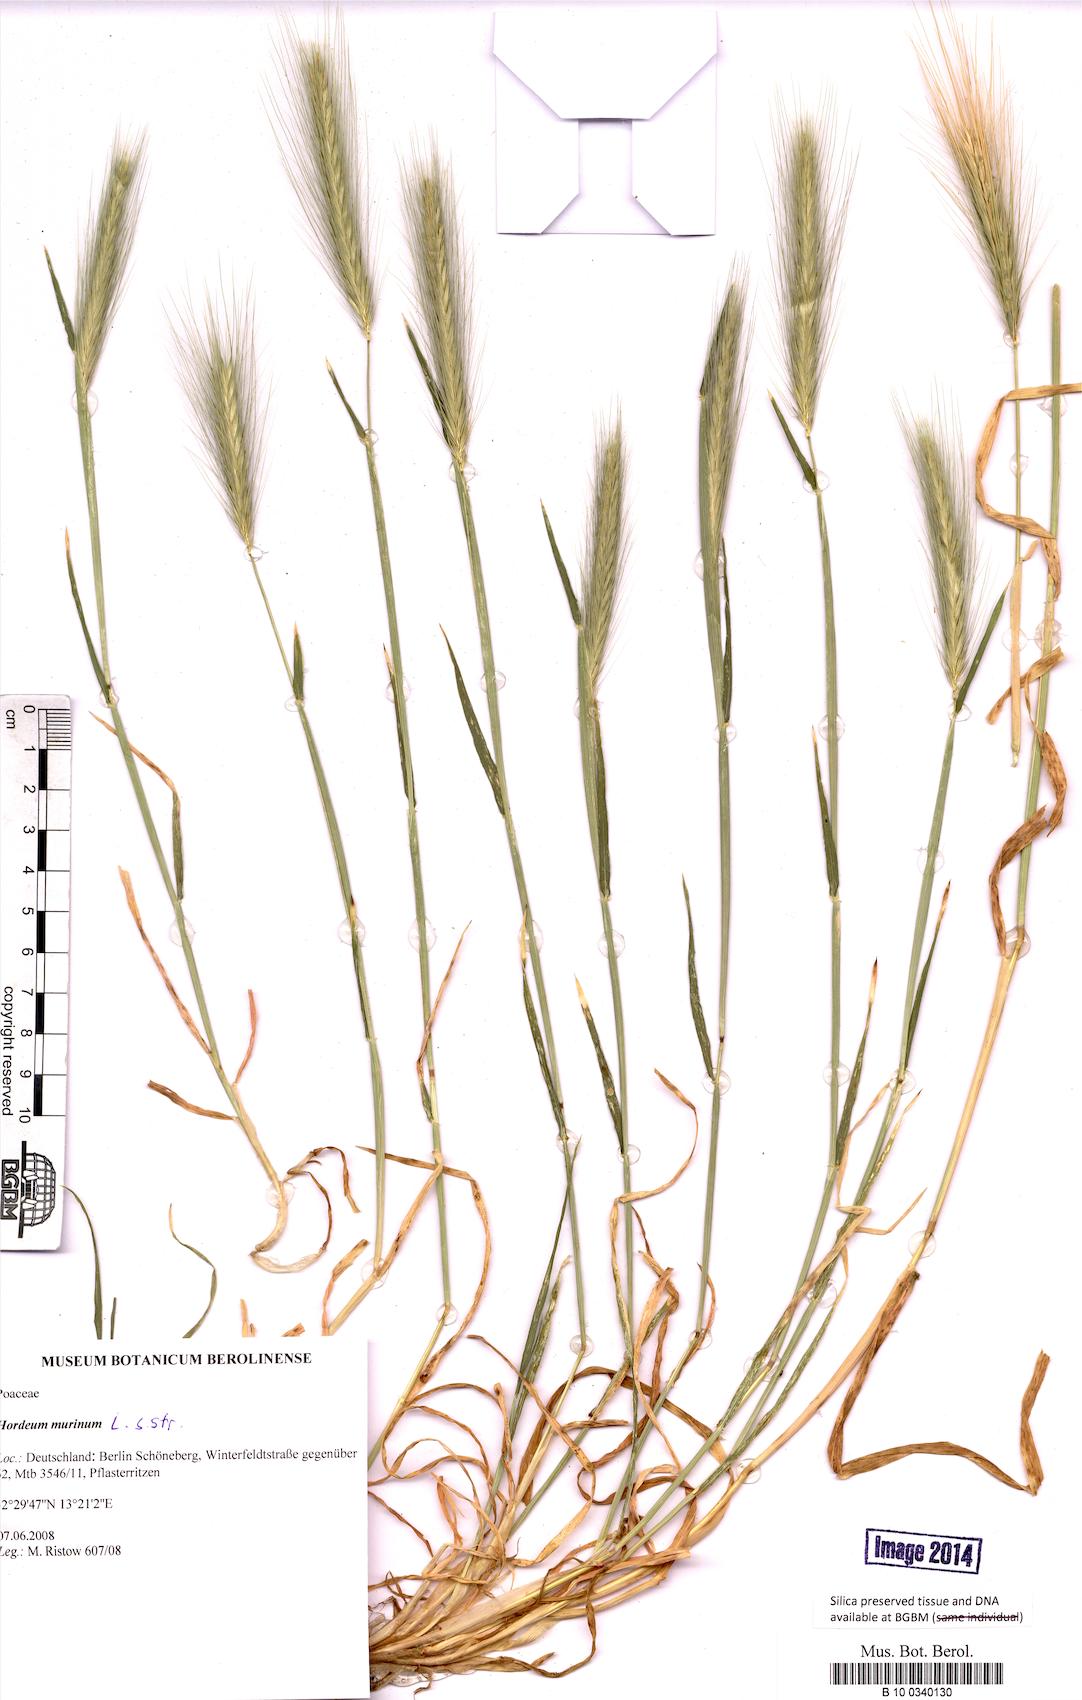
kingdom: Plantae
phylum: Tracheophyta
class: Liliopsida
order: Poales
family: Poaceae
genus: Hordeum
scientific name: Hordeum murinum
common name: Wall barley
